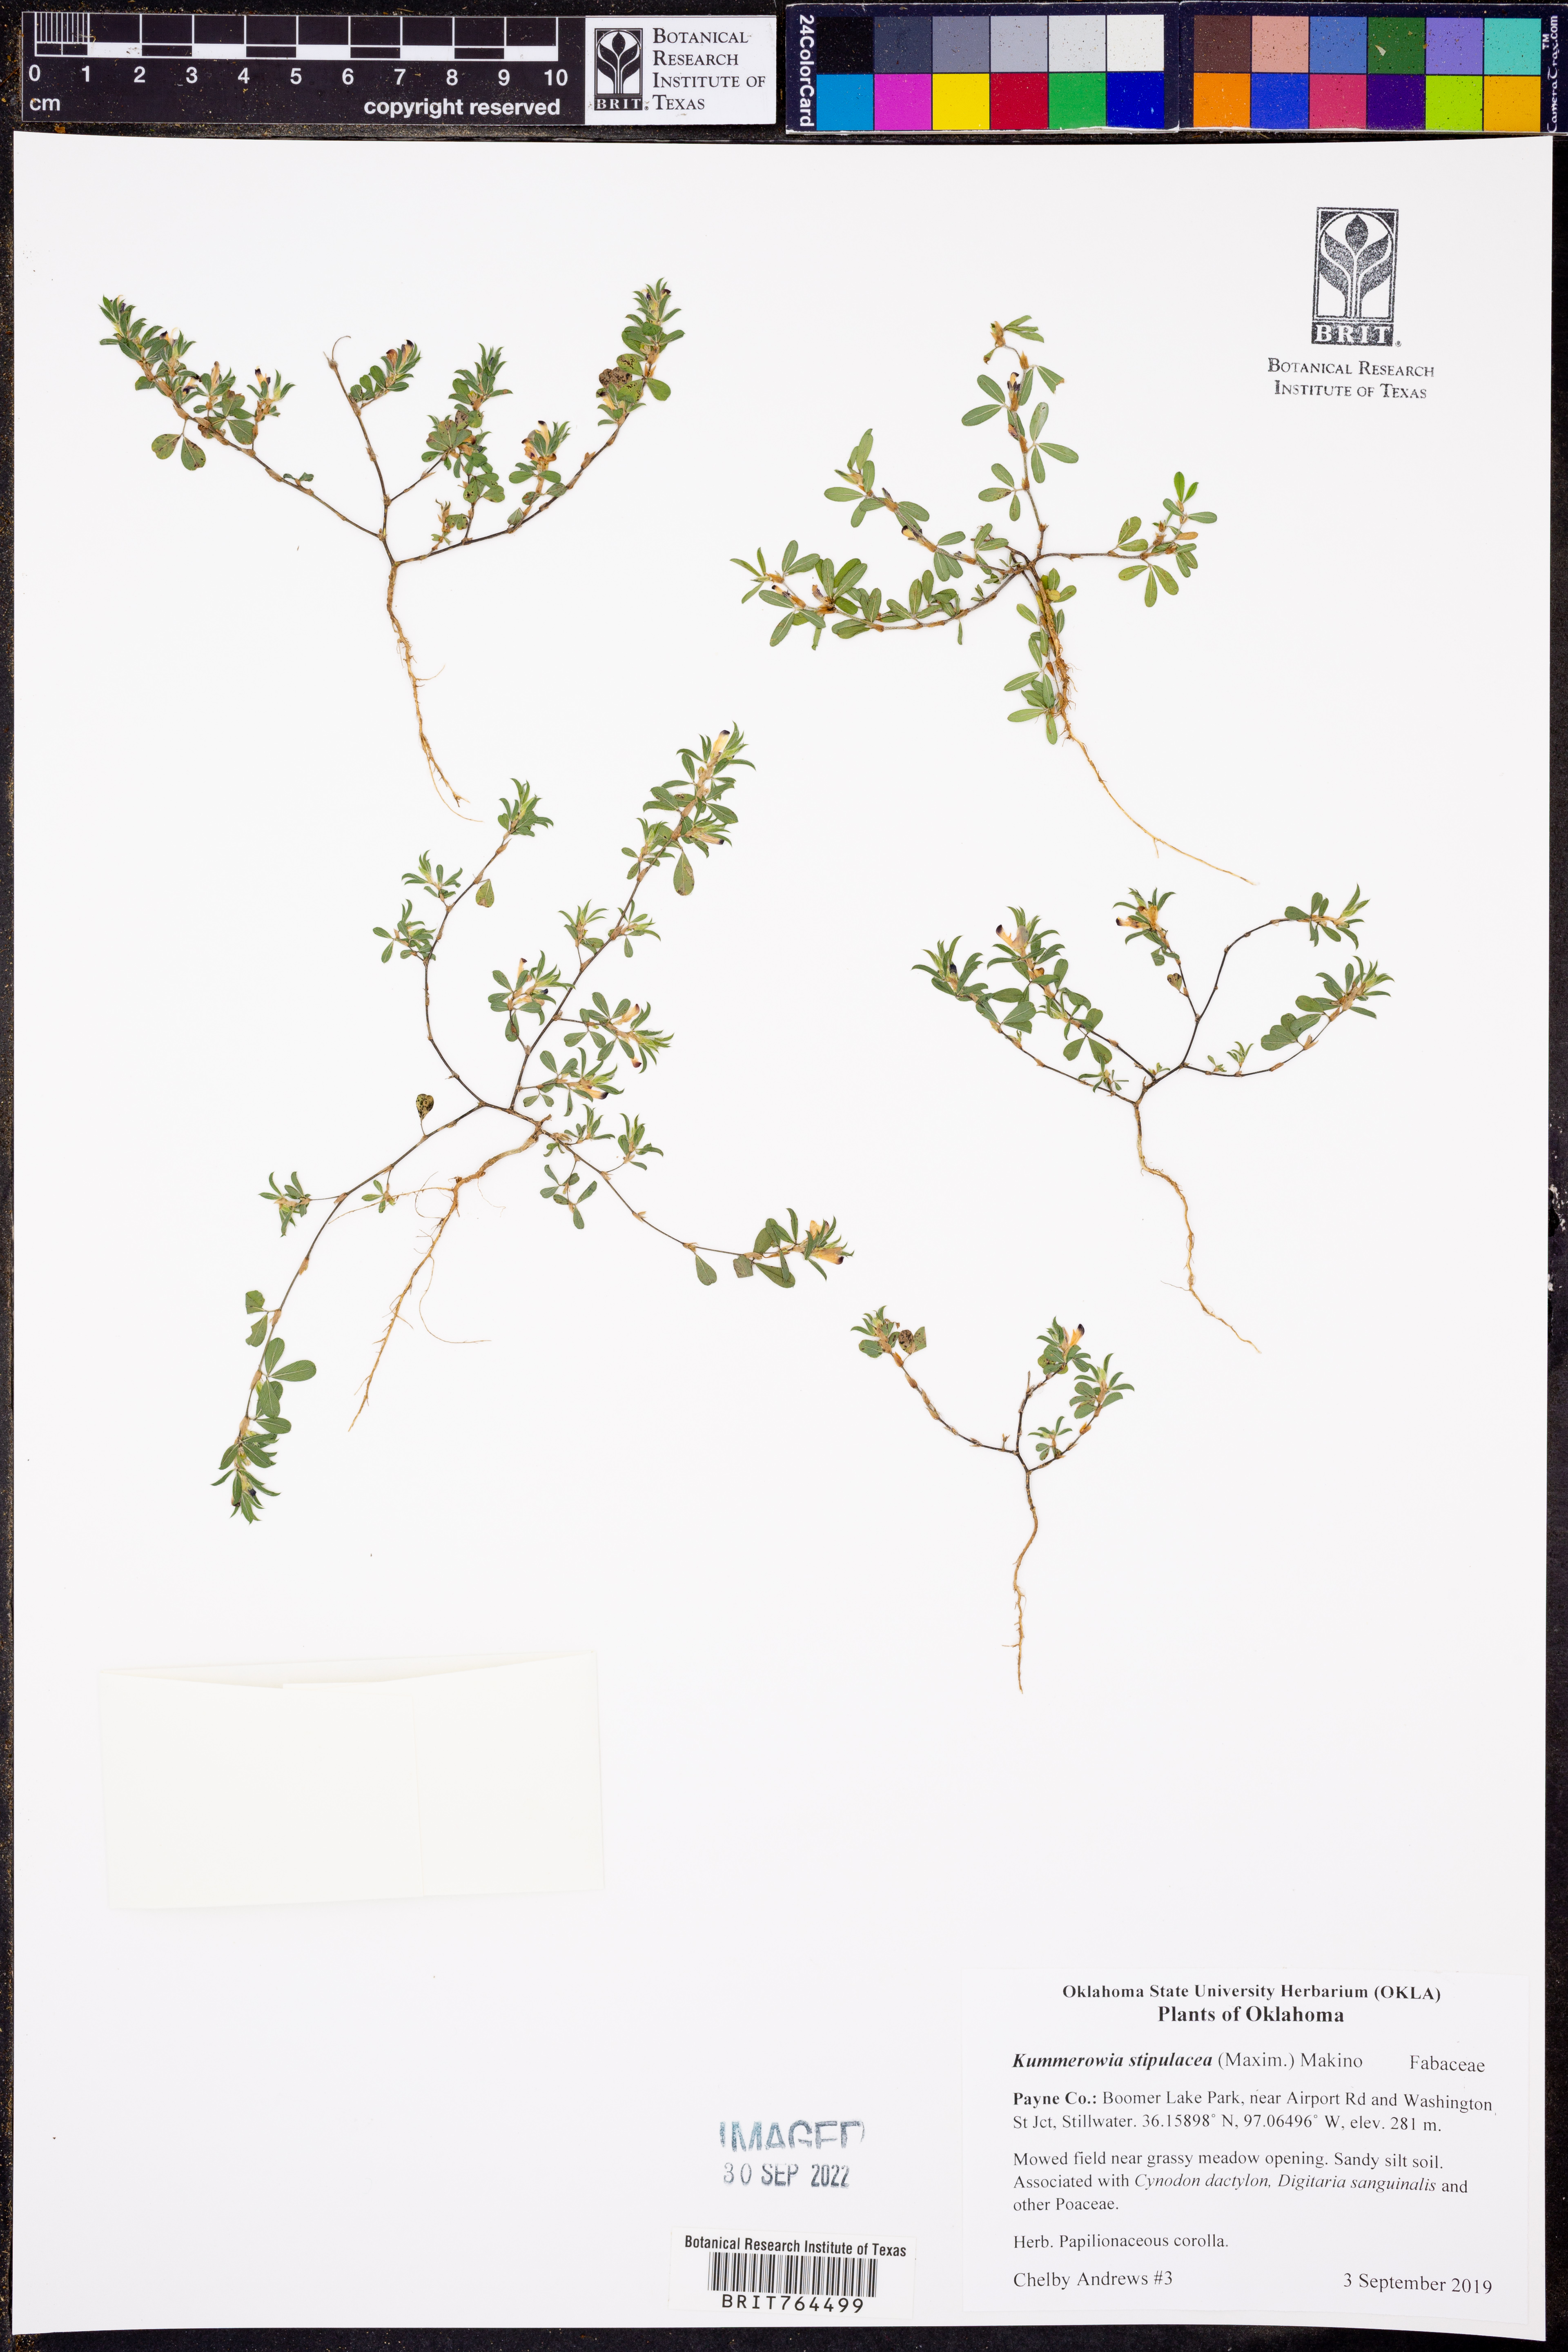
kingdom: Plantae
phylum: Tracheophyta
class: Magnoliopsida
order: Fabales
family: Fabaceae
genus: Kummerowia
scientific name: Kummerowia stipulacea
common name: Korean clover
